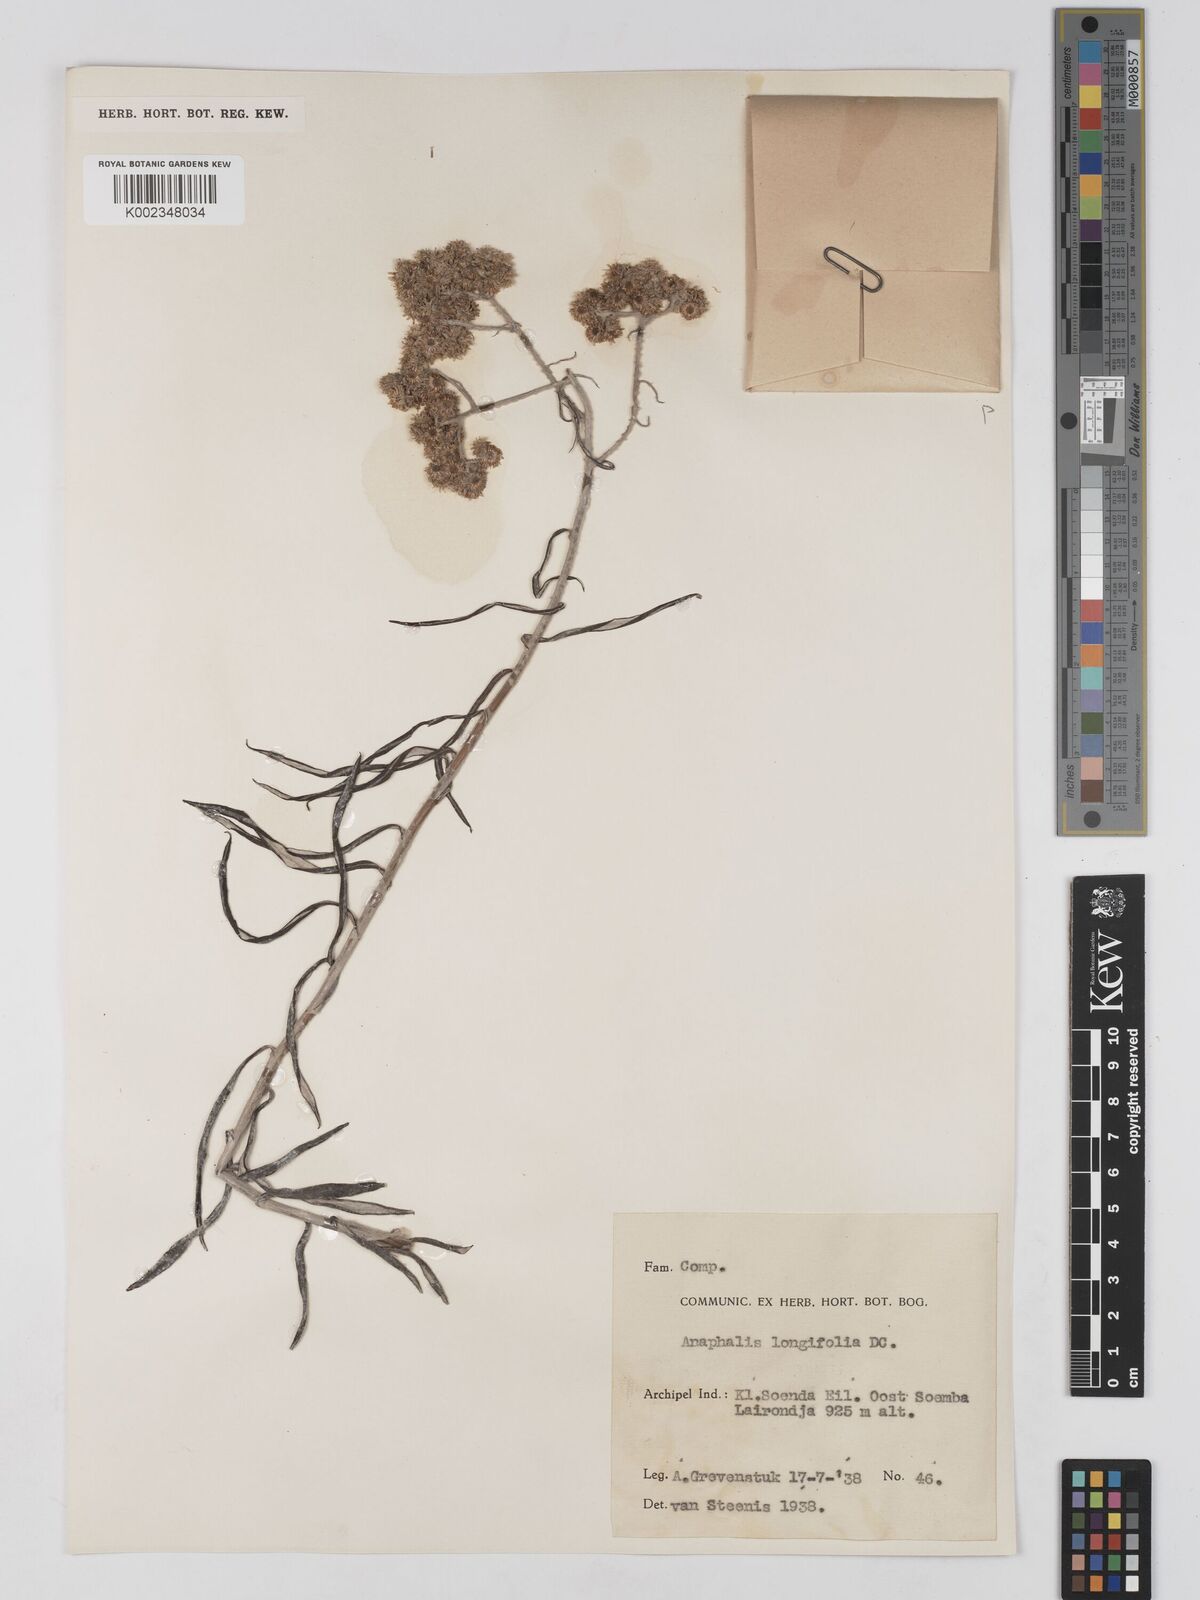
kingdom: Plantae
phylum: Tracheophyta
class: Magnoliopsida
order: Asterales
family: Asteraceae
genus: Anaphalis
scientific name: Anaphalis longifolia
